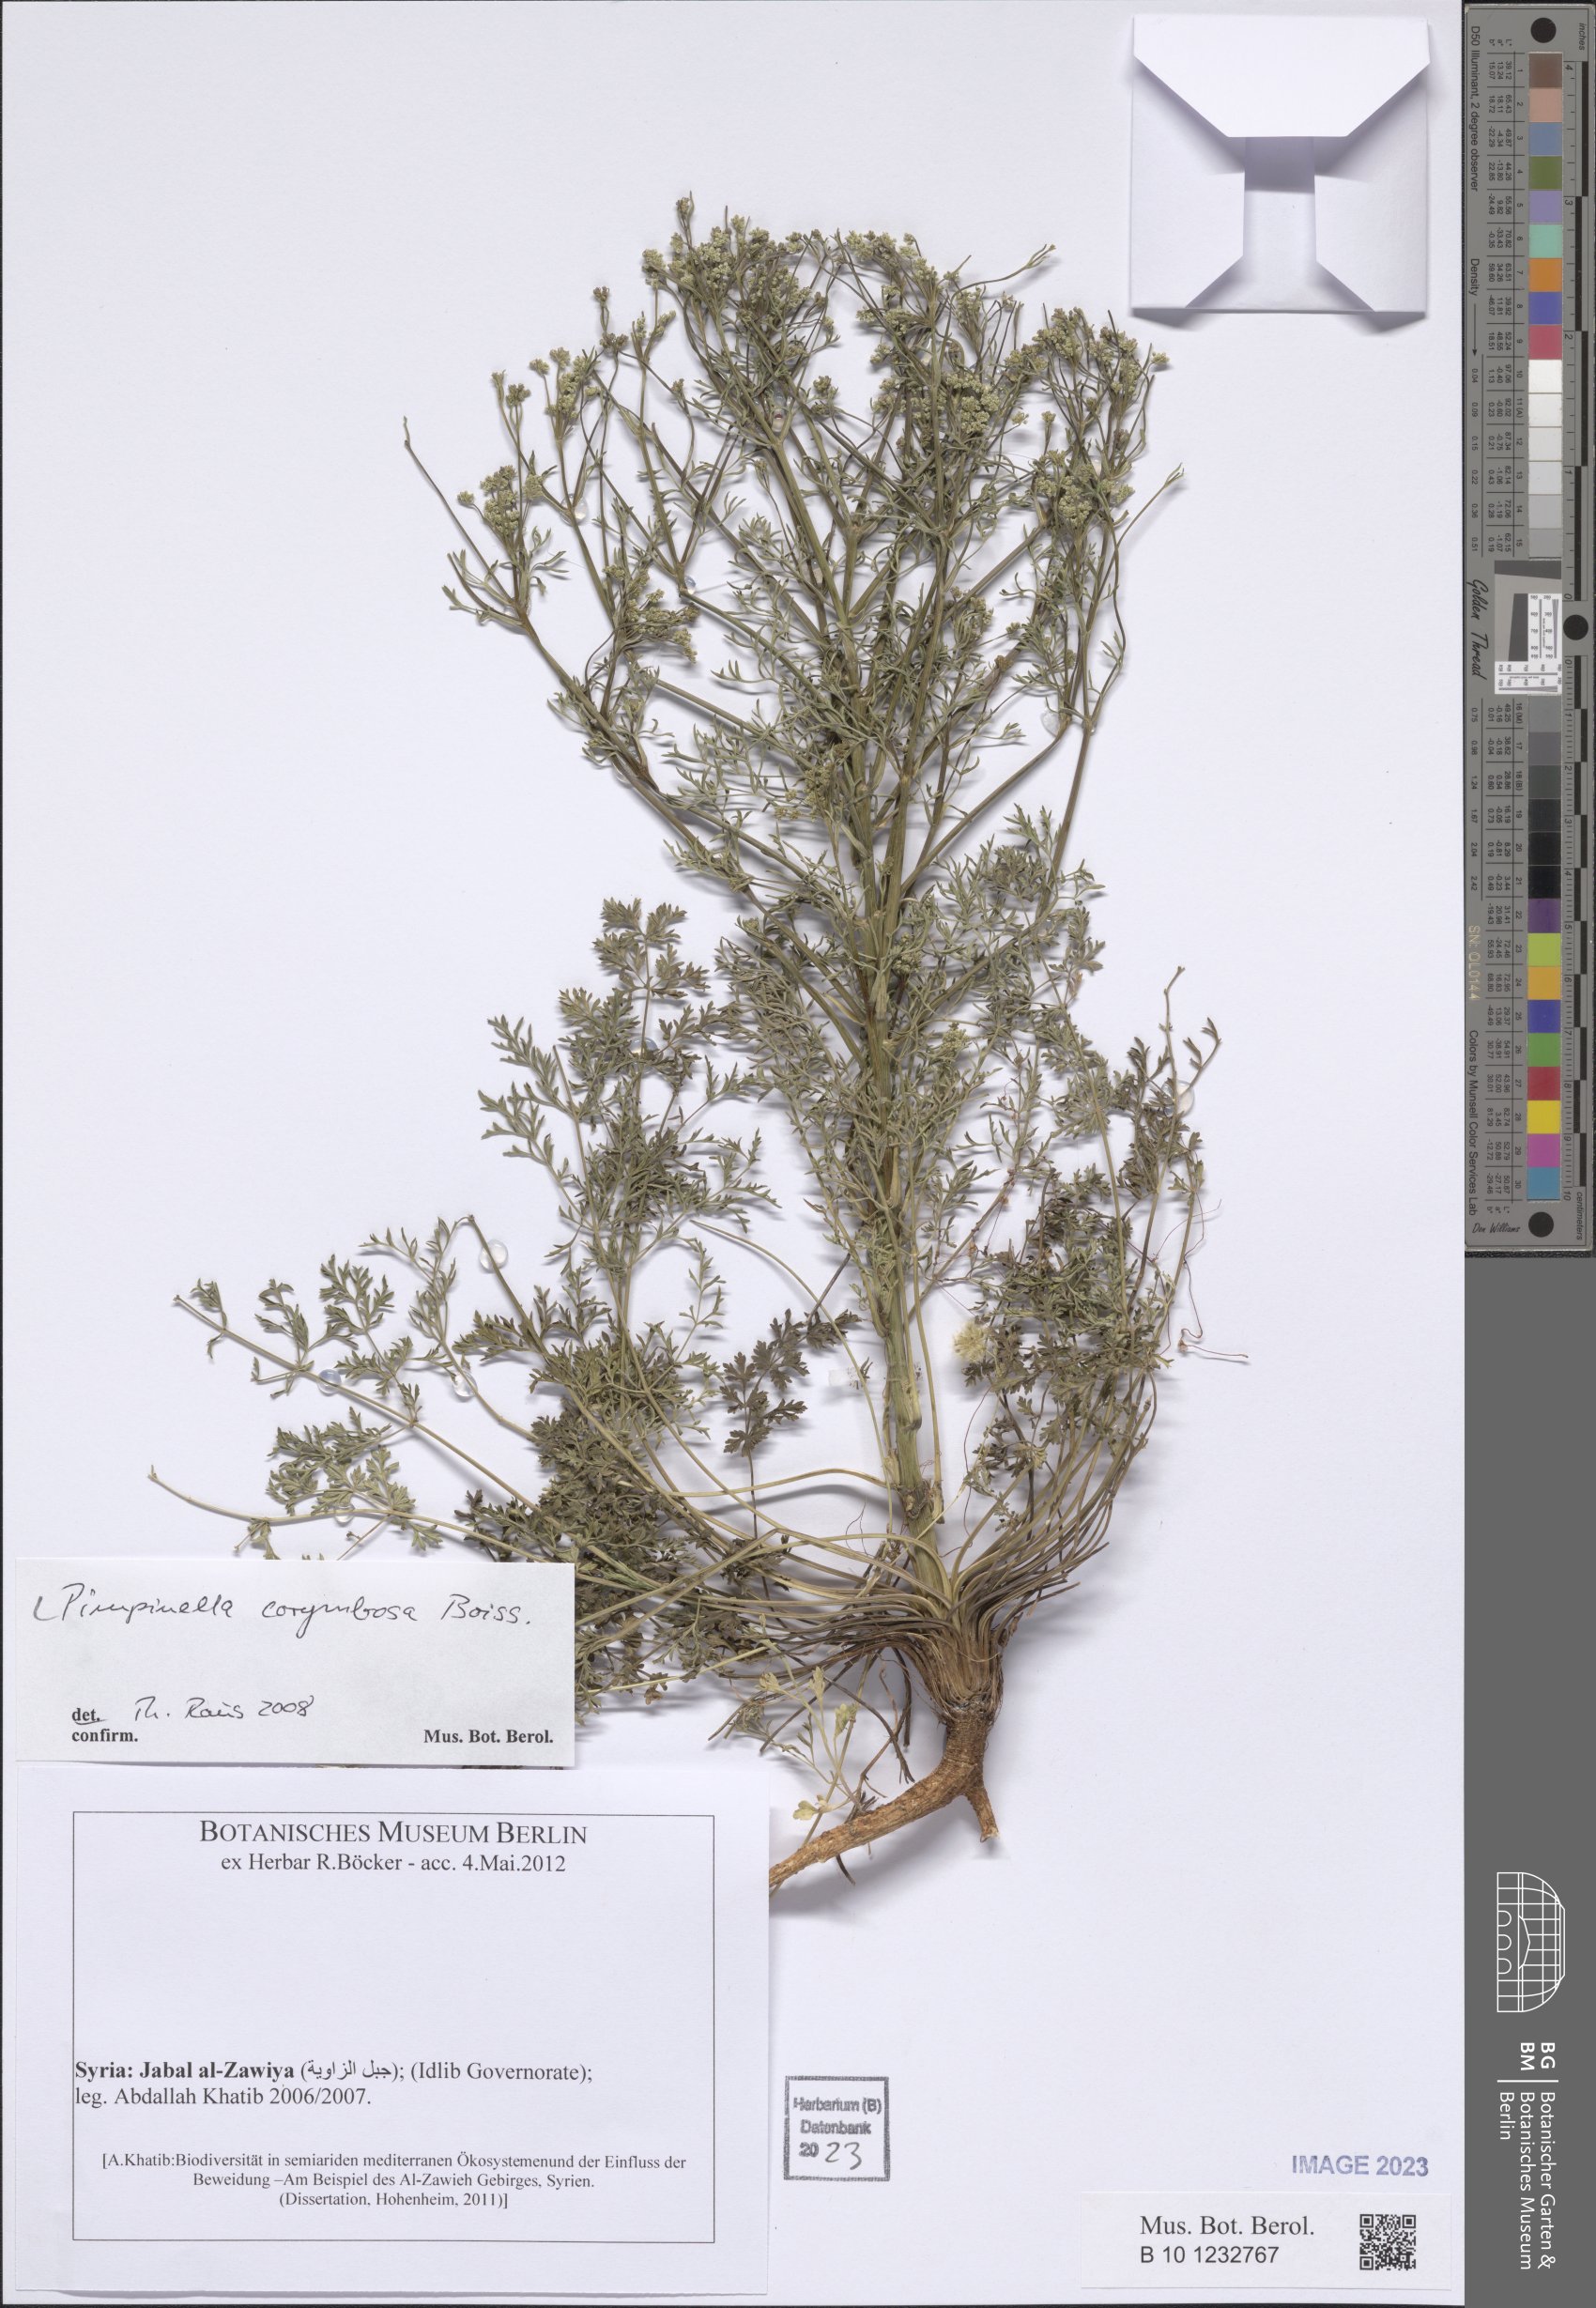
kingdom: Plantae
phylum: Tracheophyta
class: Magnoliopsida
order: Apiales
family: Apiaceae
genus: Pimpinella
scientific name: Pimpinella corymbosa
